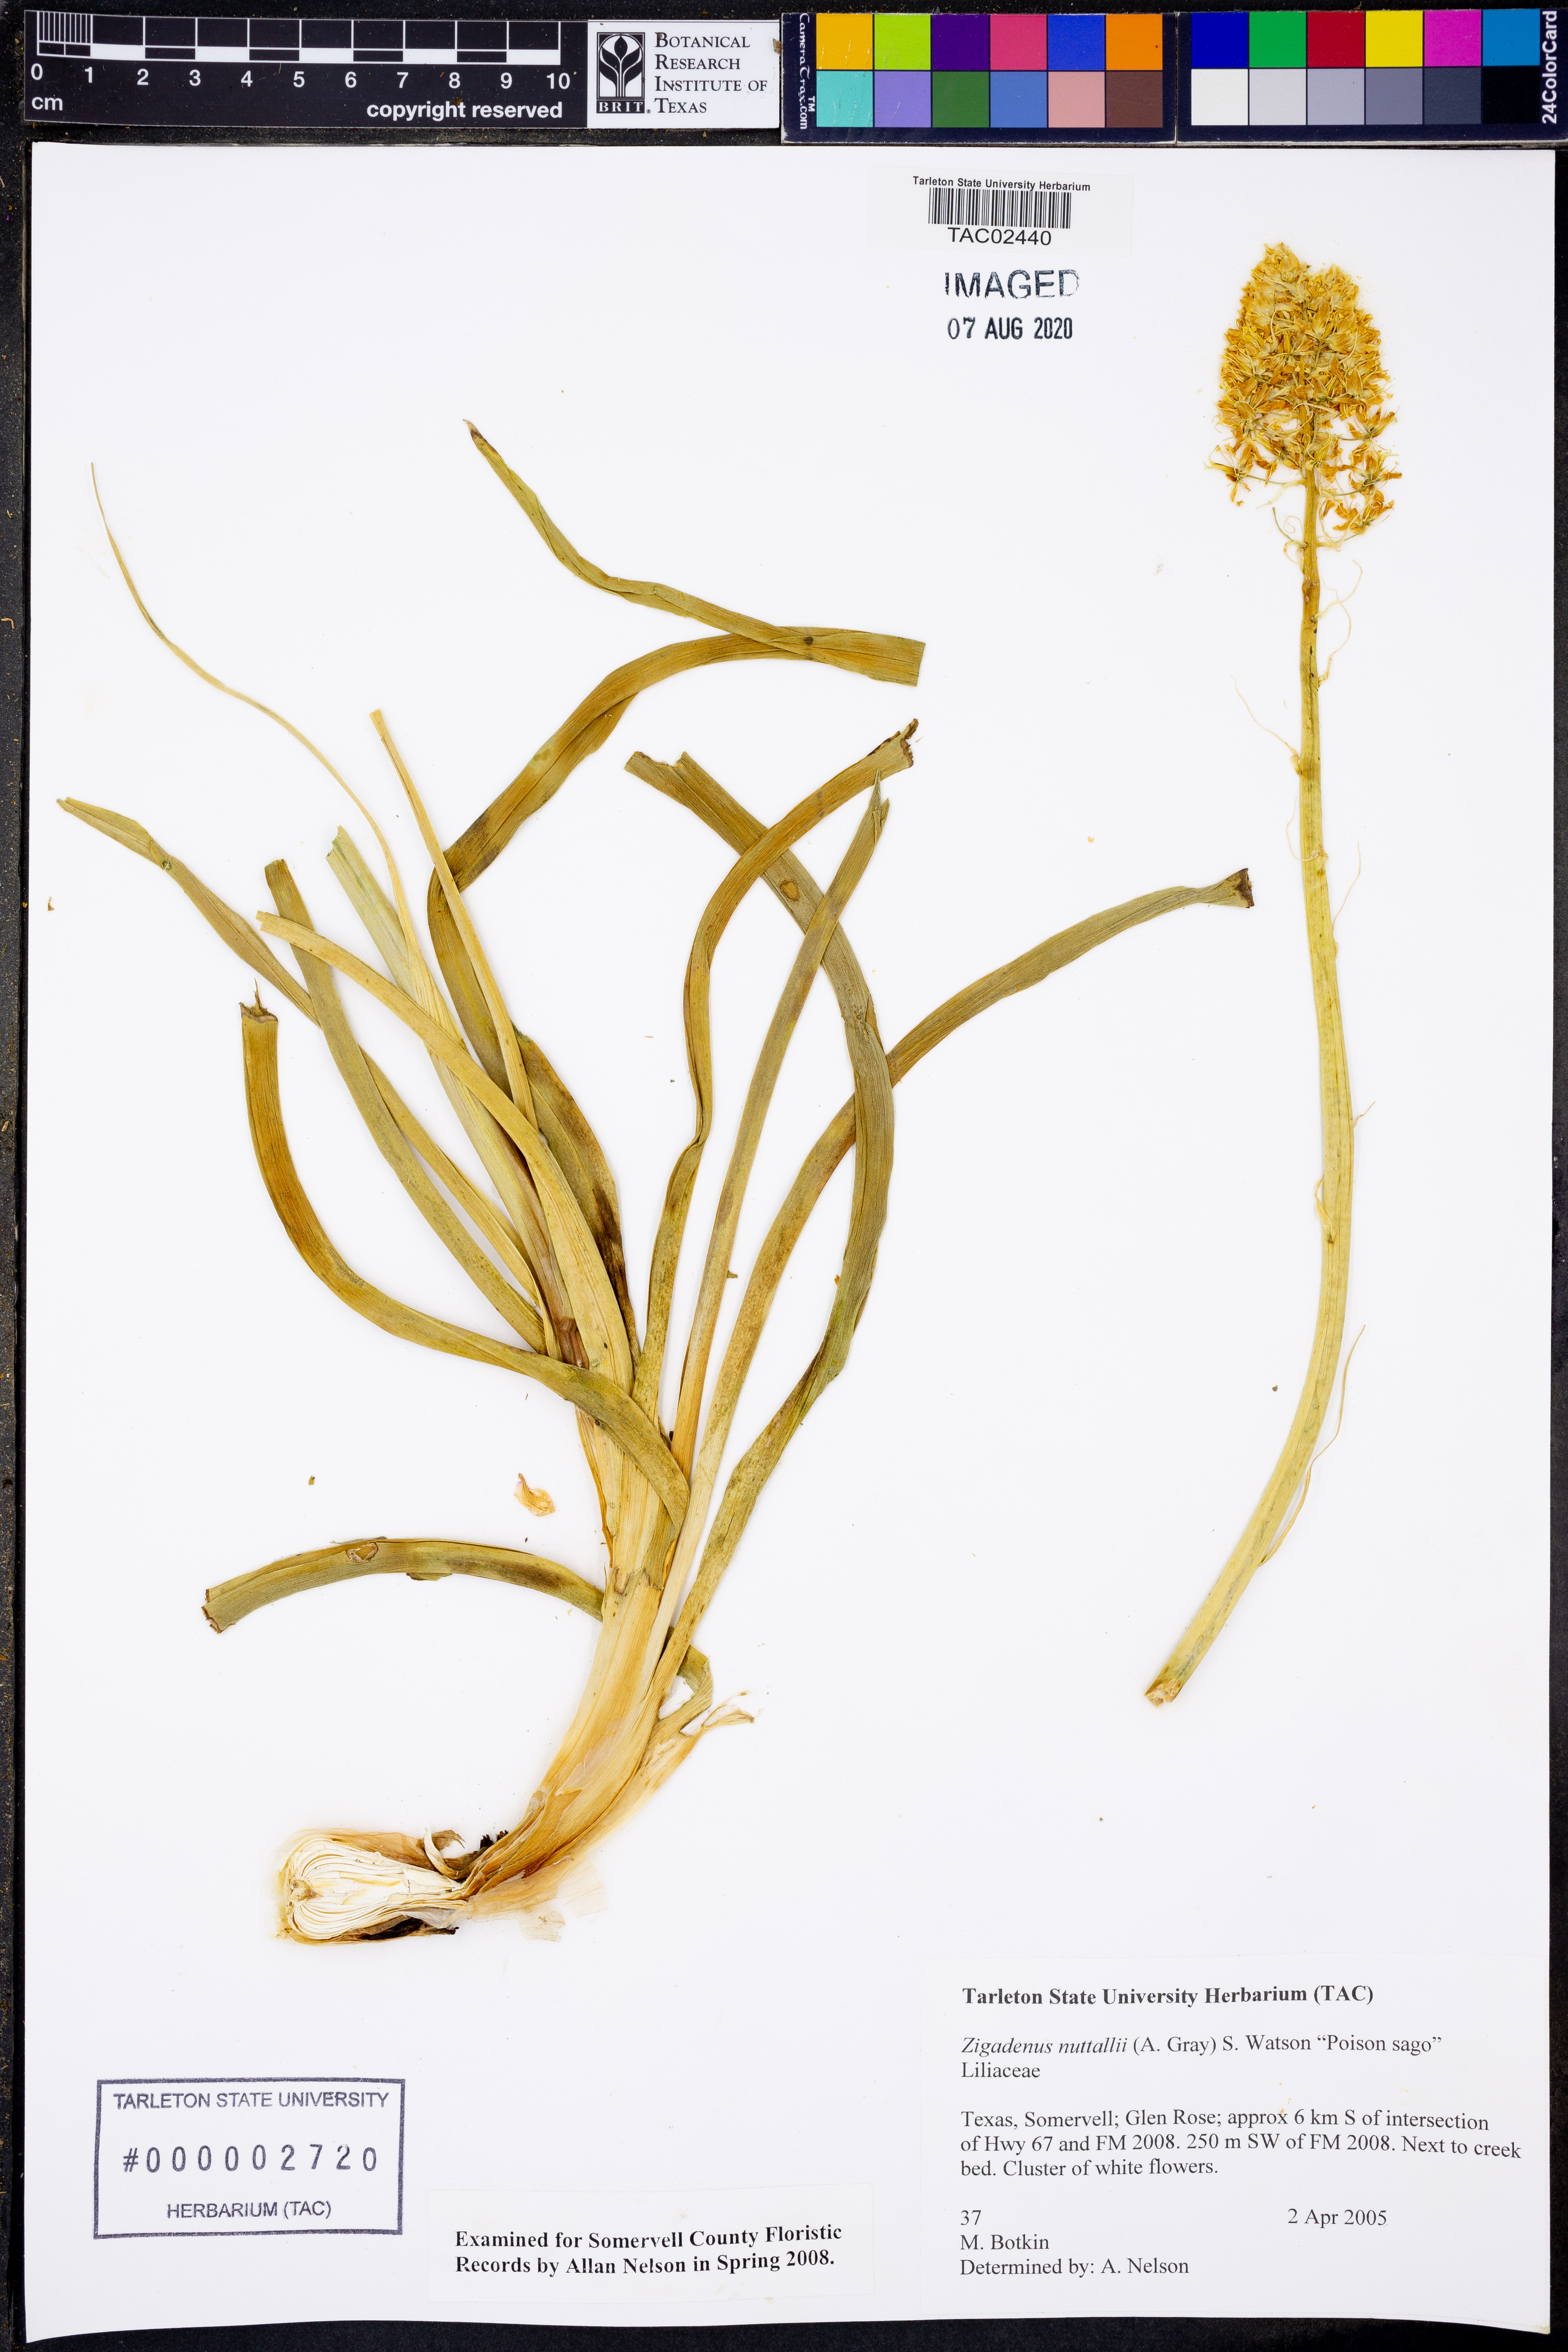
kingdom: Plantae
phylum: Tracheophyta
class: Liliopsida
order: Liliales
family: Melanthiaceae
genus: Toxicoscordion
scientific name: Toxicoscordion nuttallii
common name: Poison sego
